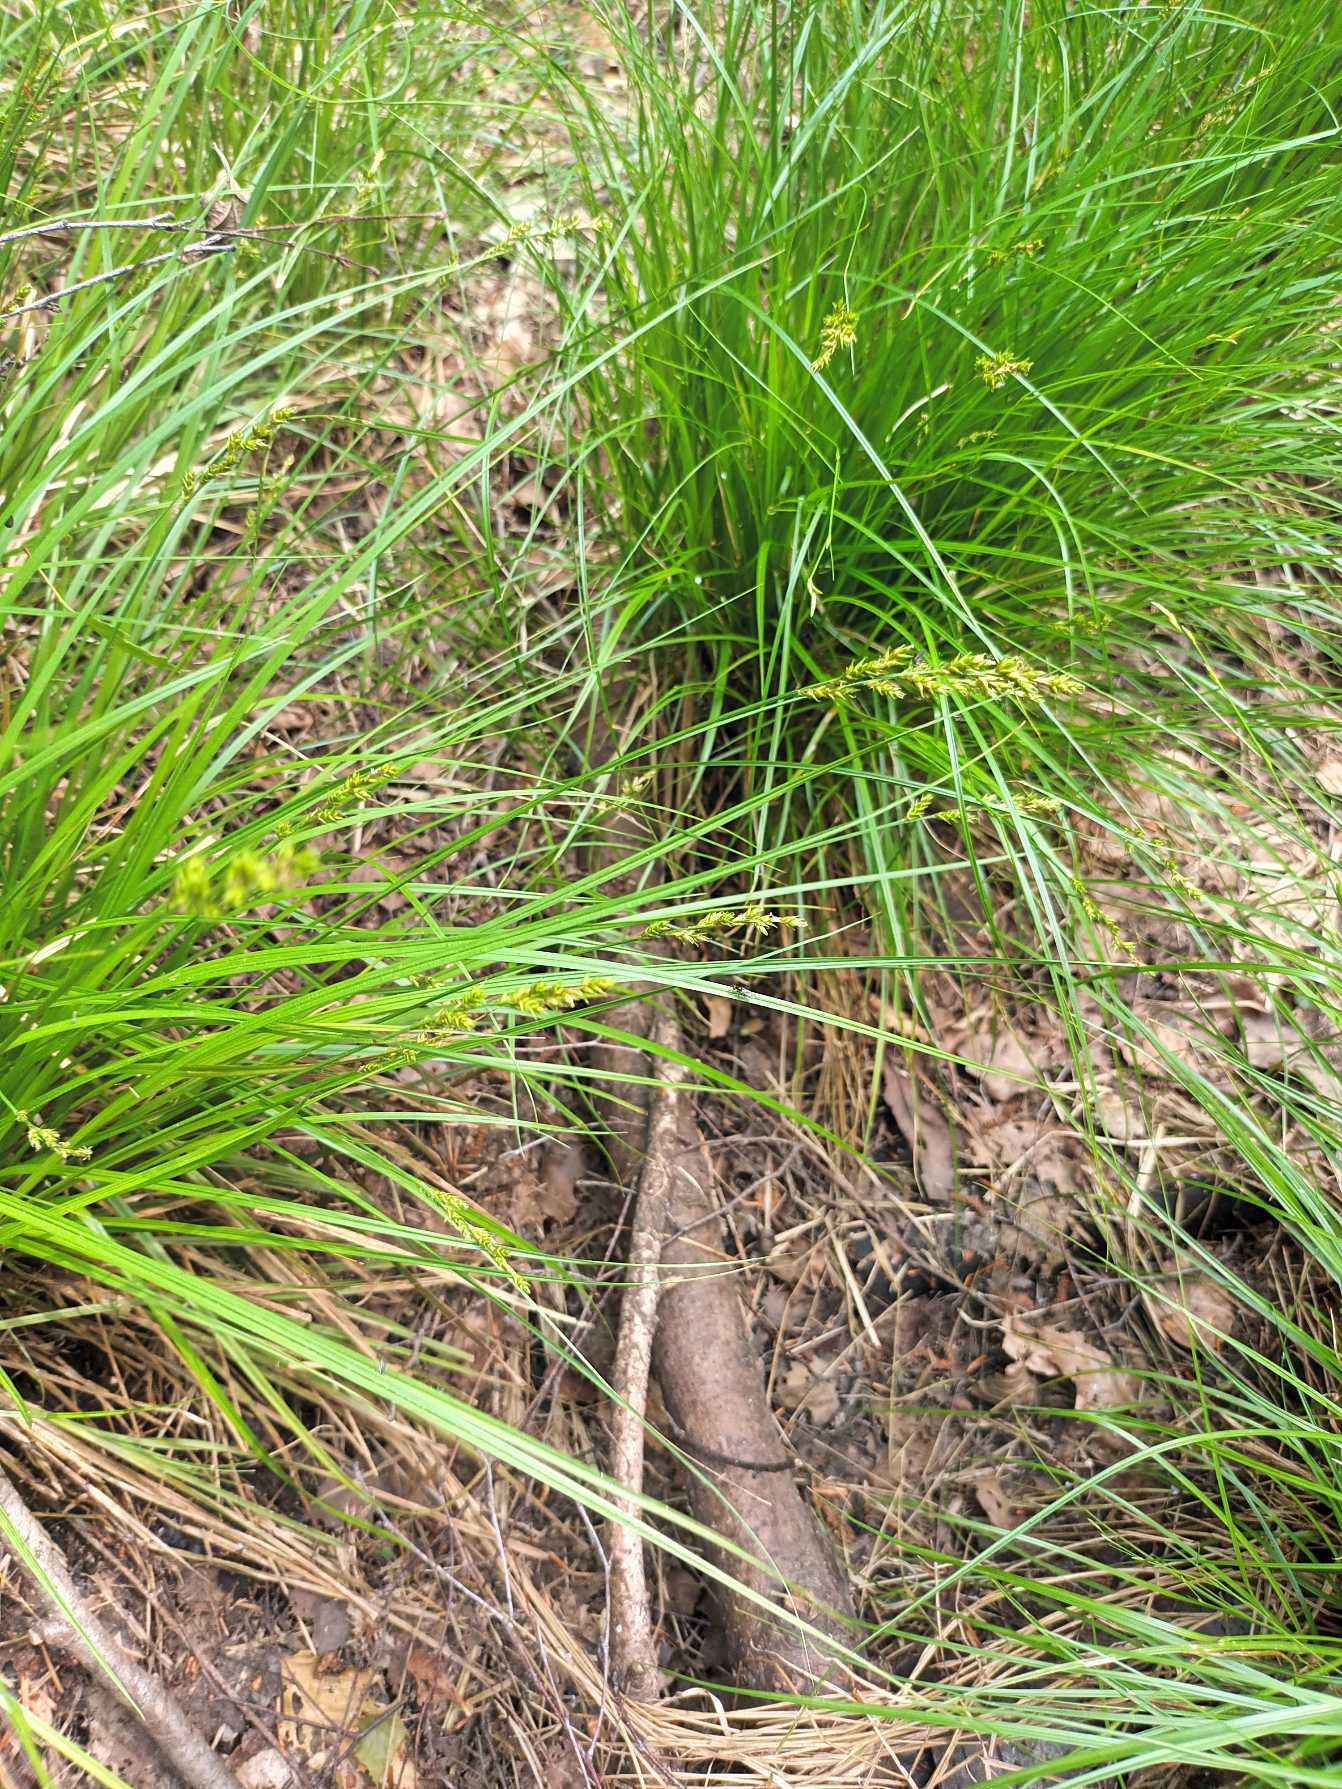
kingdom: Plantae
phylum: Tracheophyta
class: Liliopsida
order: Poales
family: Cyperaceae
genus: Carex
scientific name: Carex elongata
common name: Forlænget star
